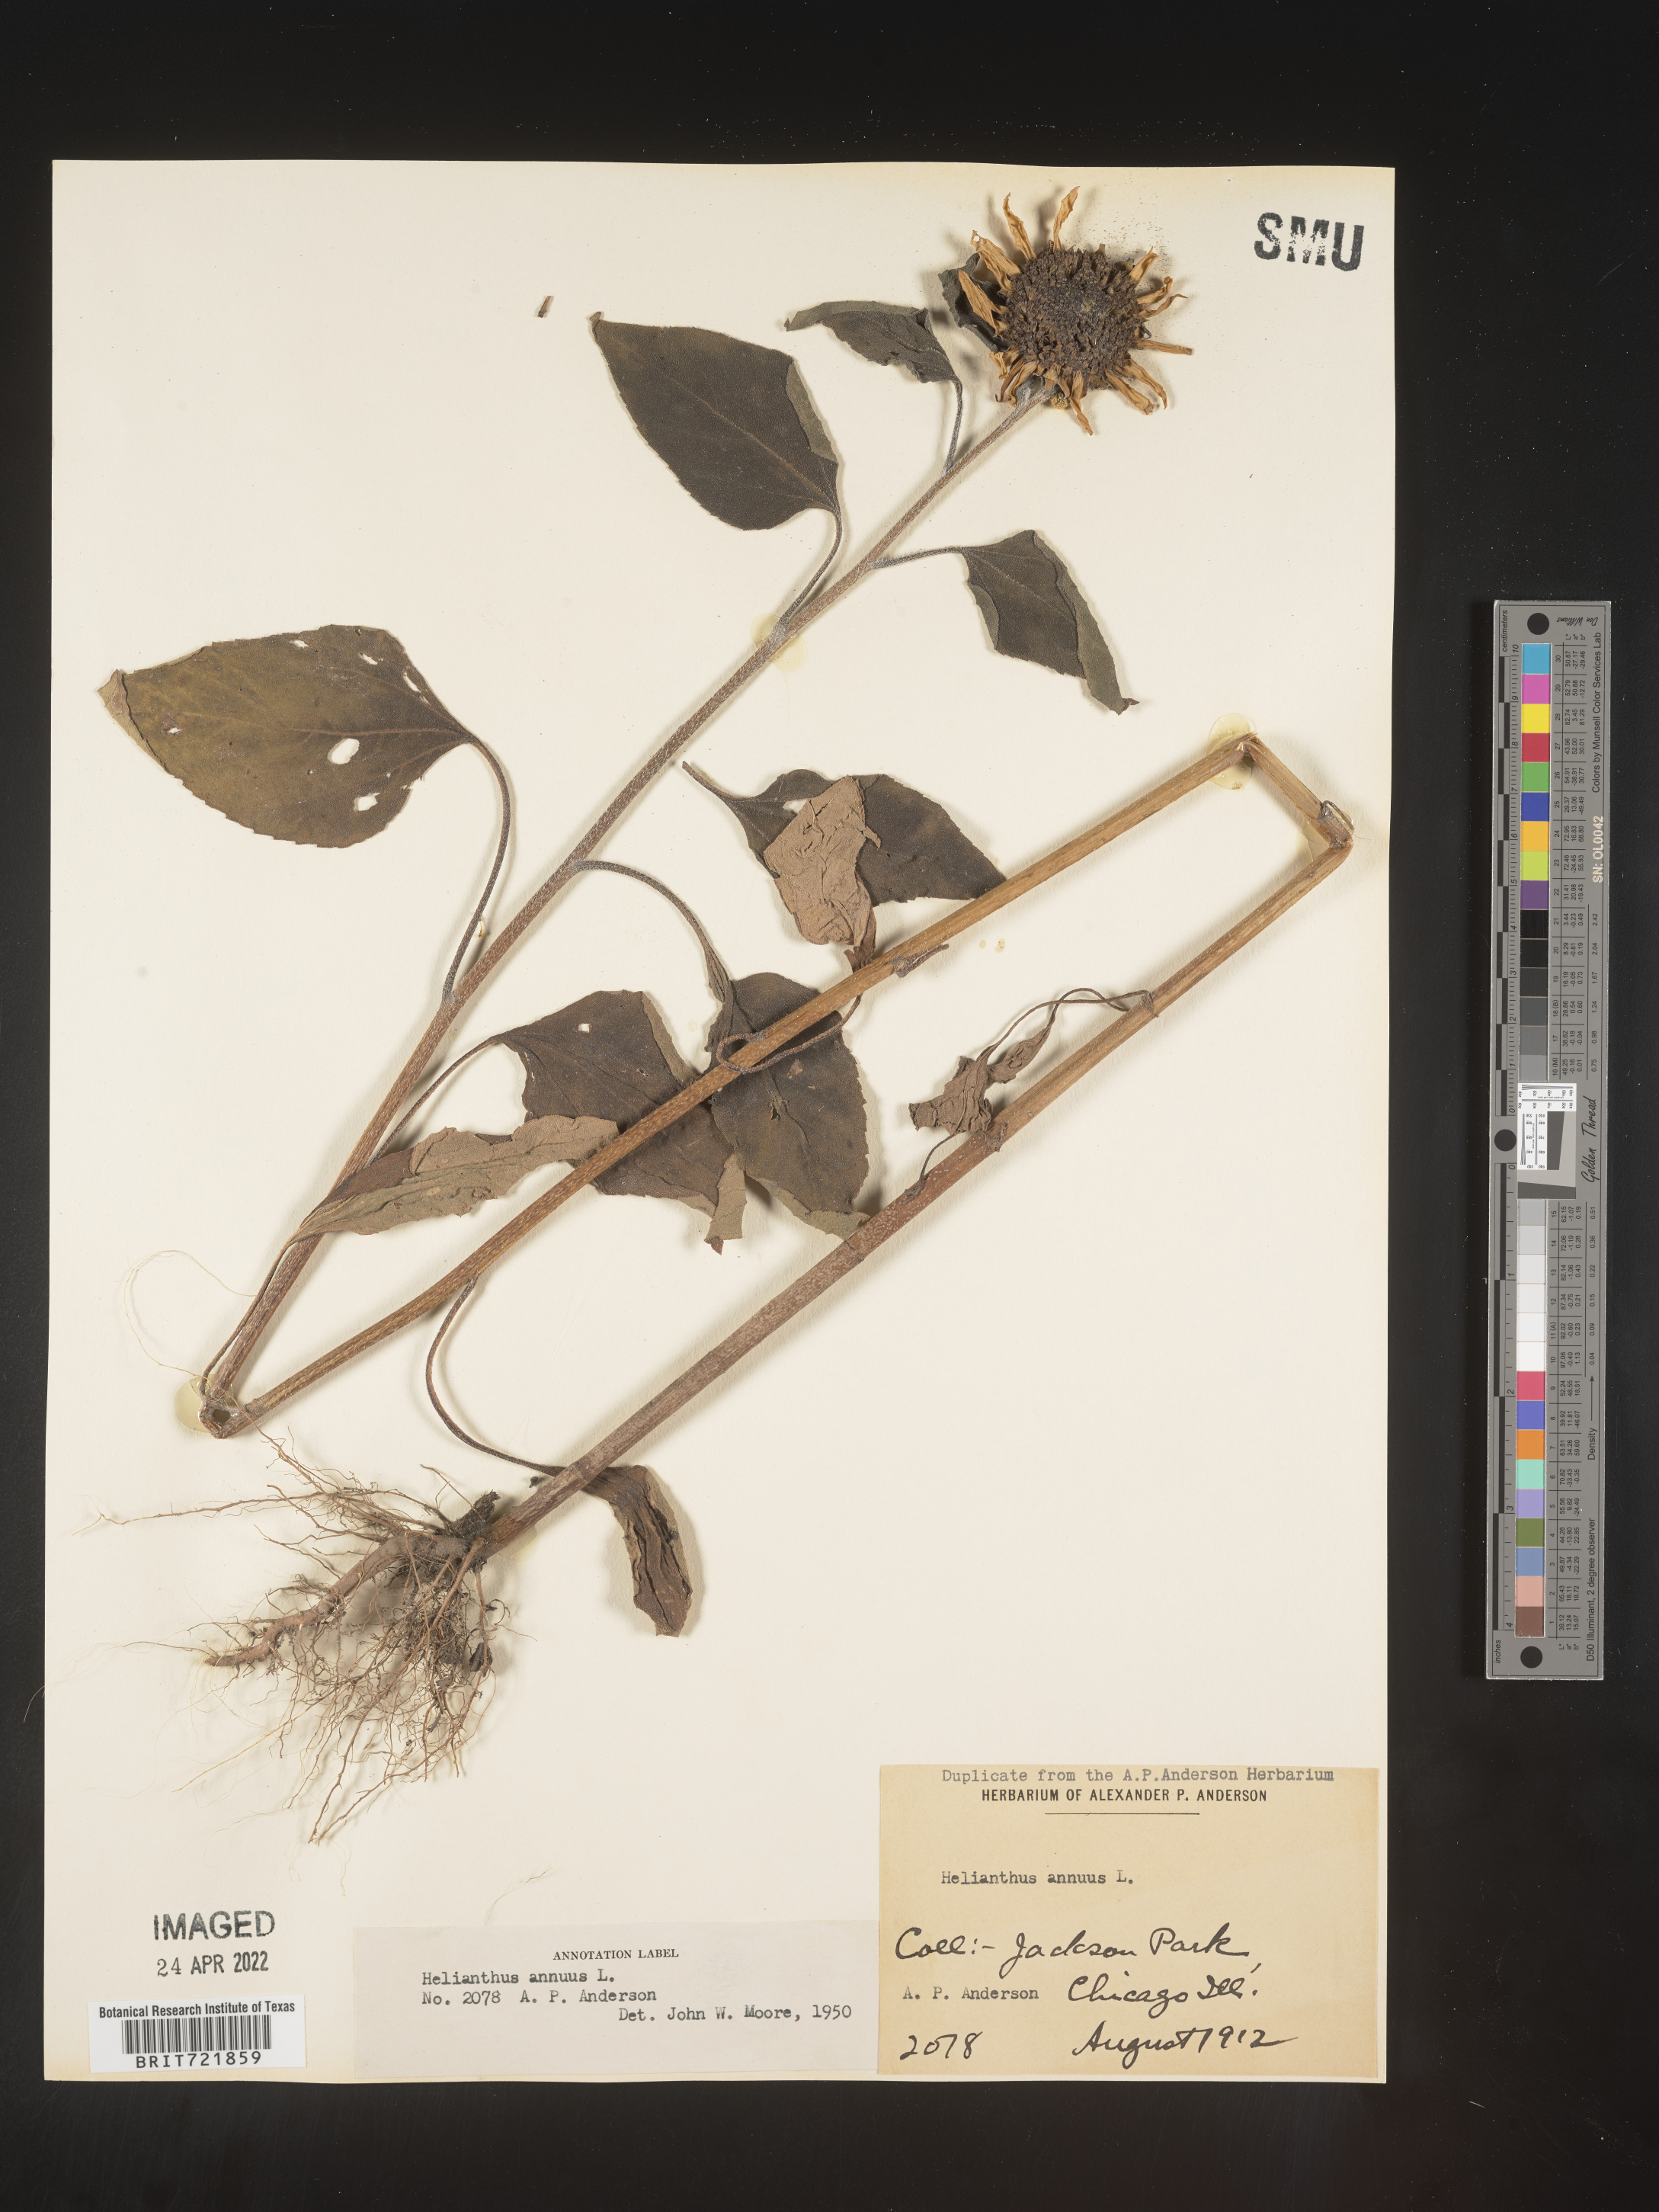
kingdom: Plantae
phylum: Tracheophyta
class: Magnoliopsida
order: Asterales
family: Asteraceae
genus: Helianthus
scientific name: Helianthus annuus
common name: Sunflower
